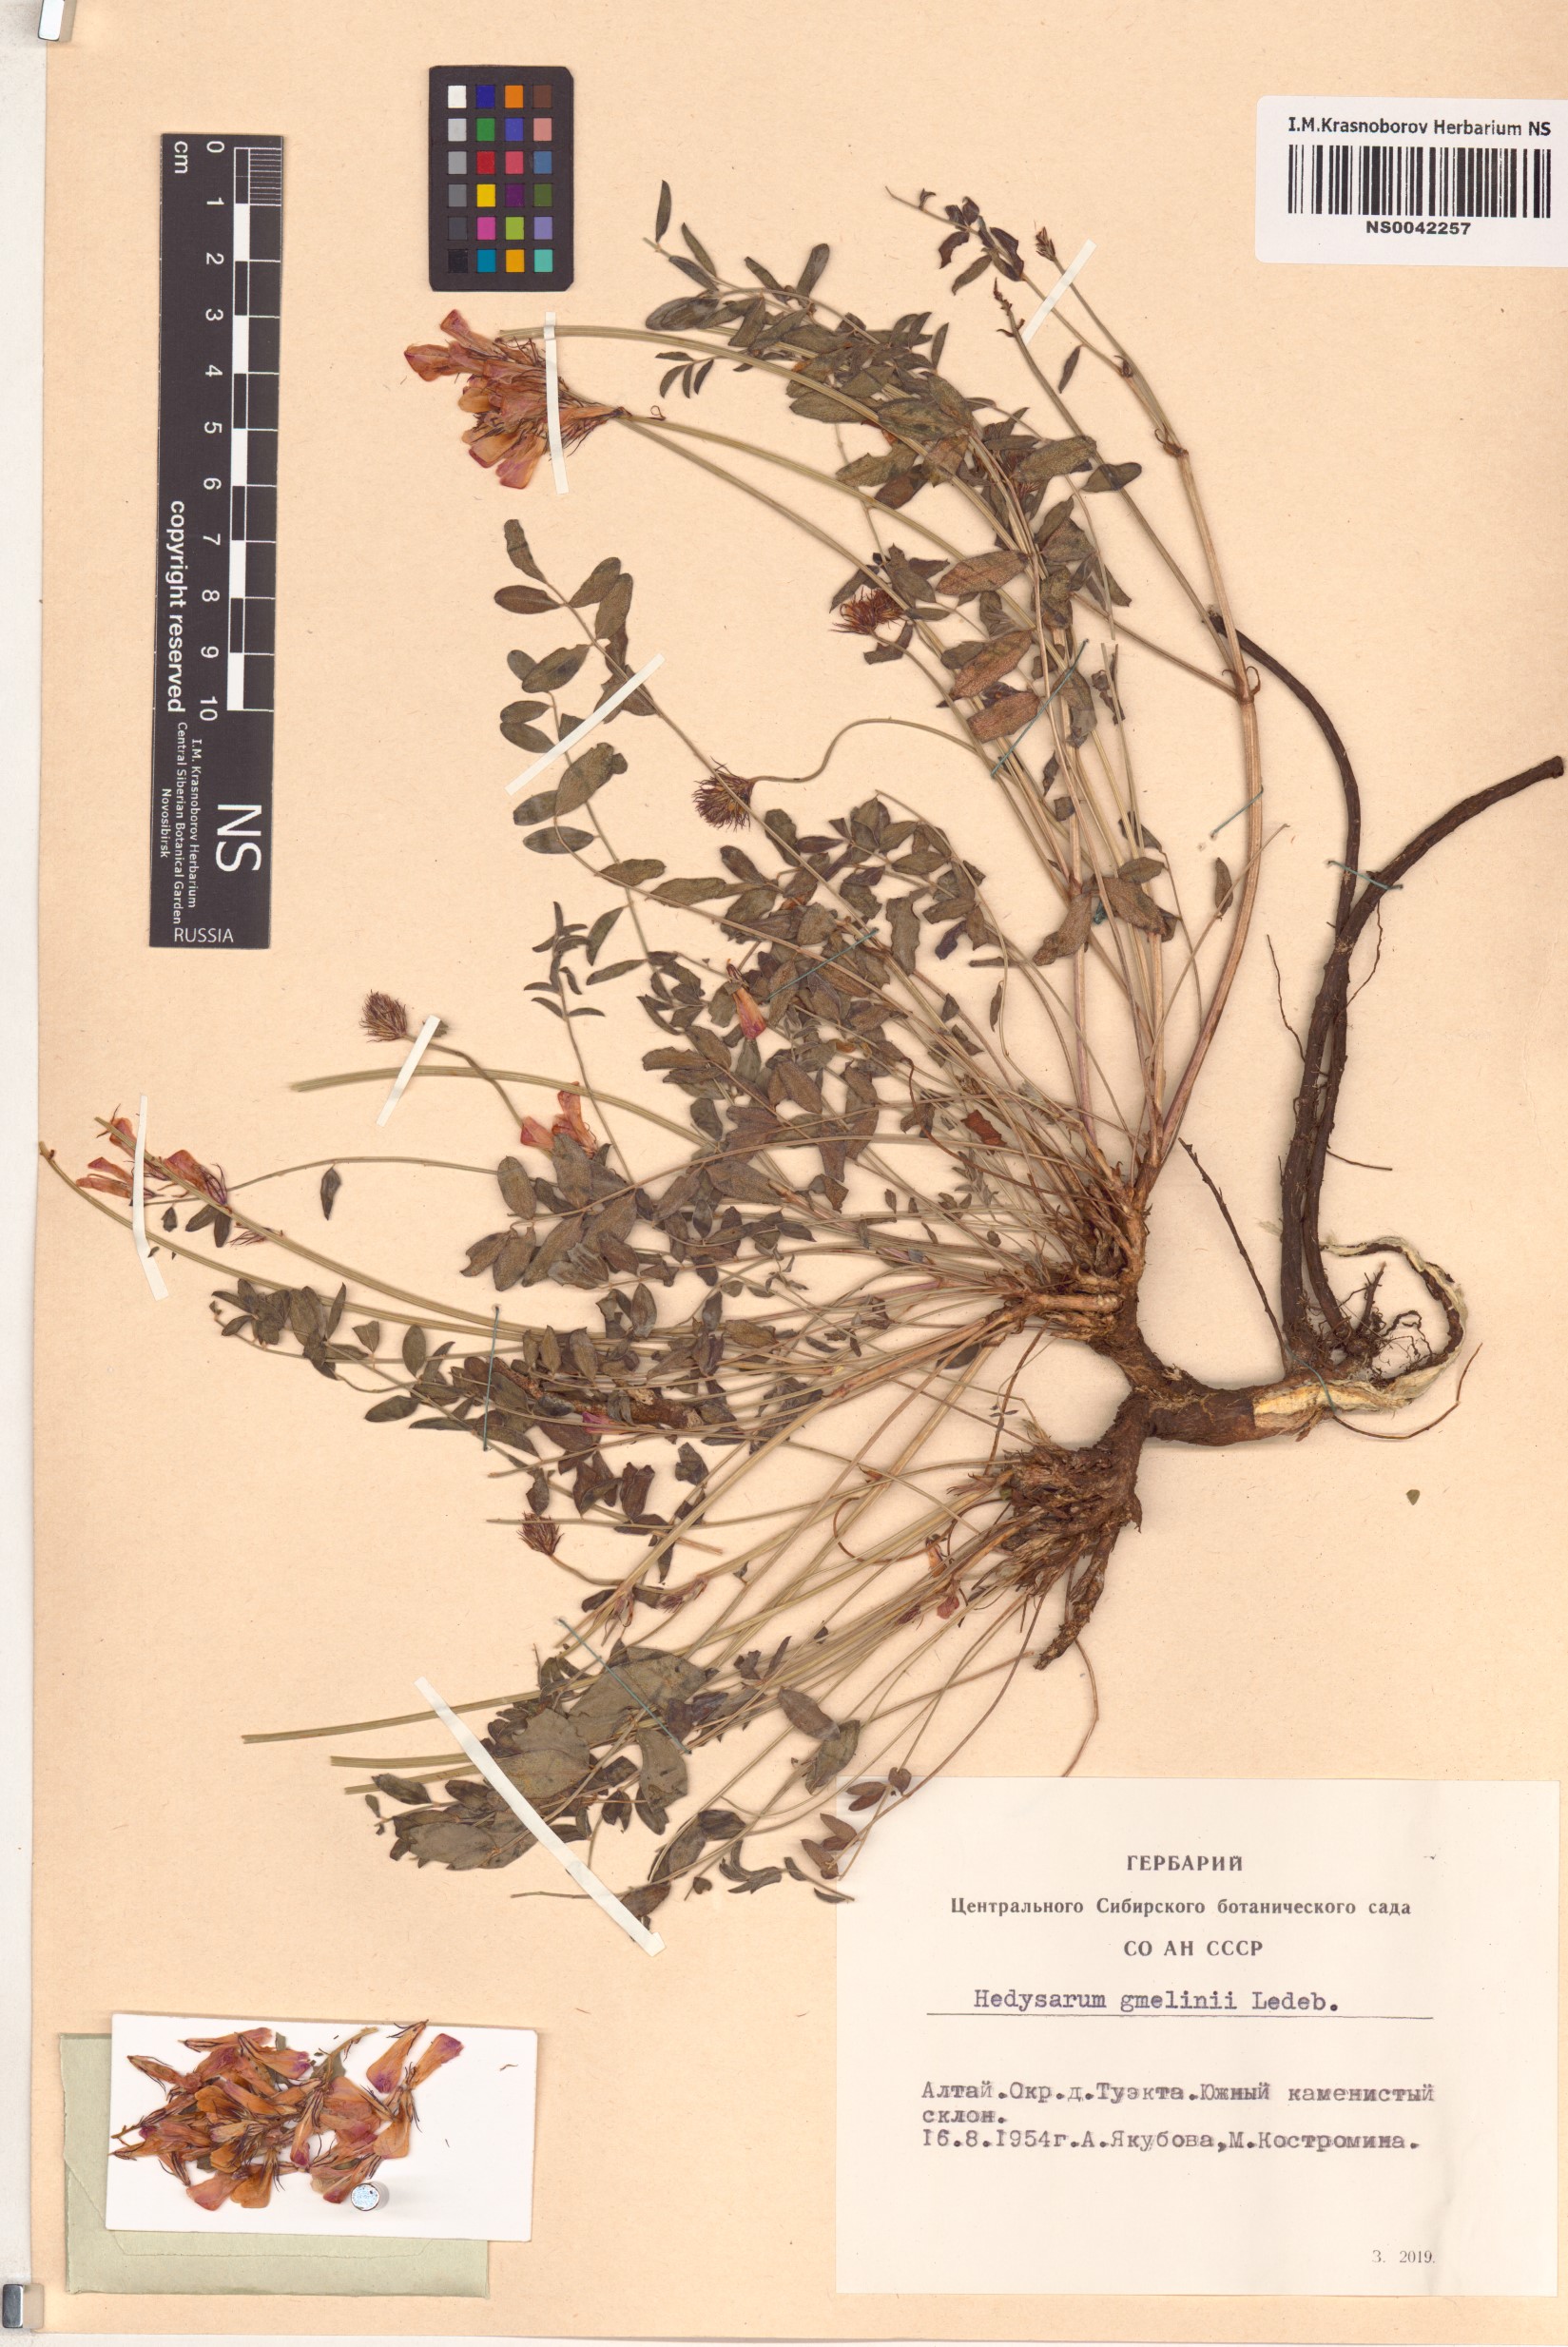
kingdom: Plantae
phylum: Tracheophyta
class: Magnoliopsida
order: Fabales
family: Fabaceae
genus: Hedysarum
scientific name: Hedysarum gmelinii
